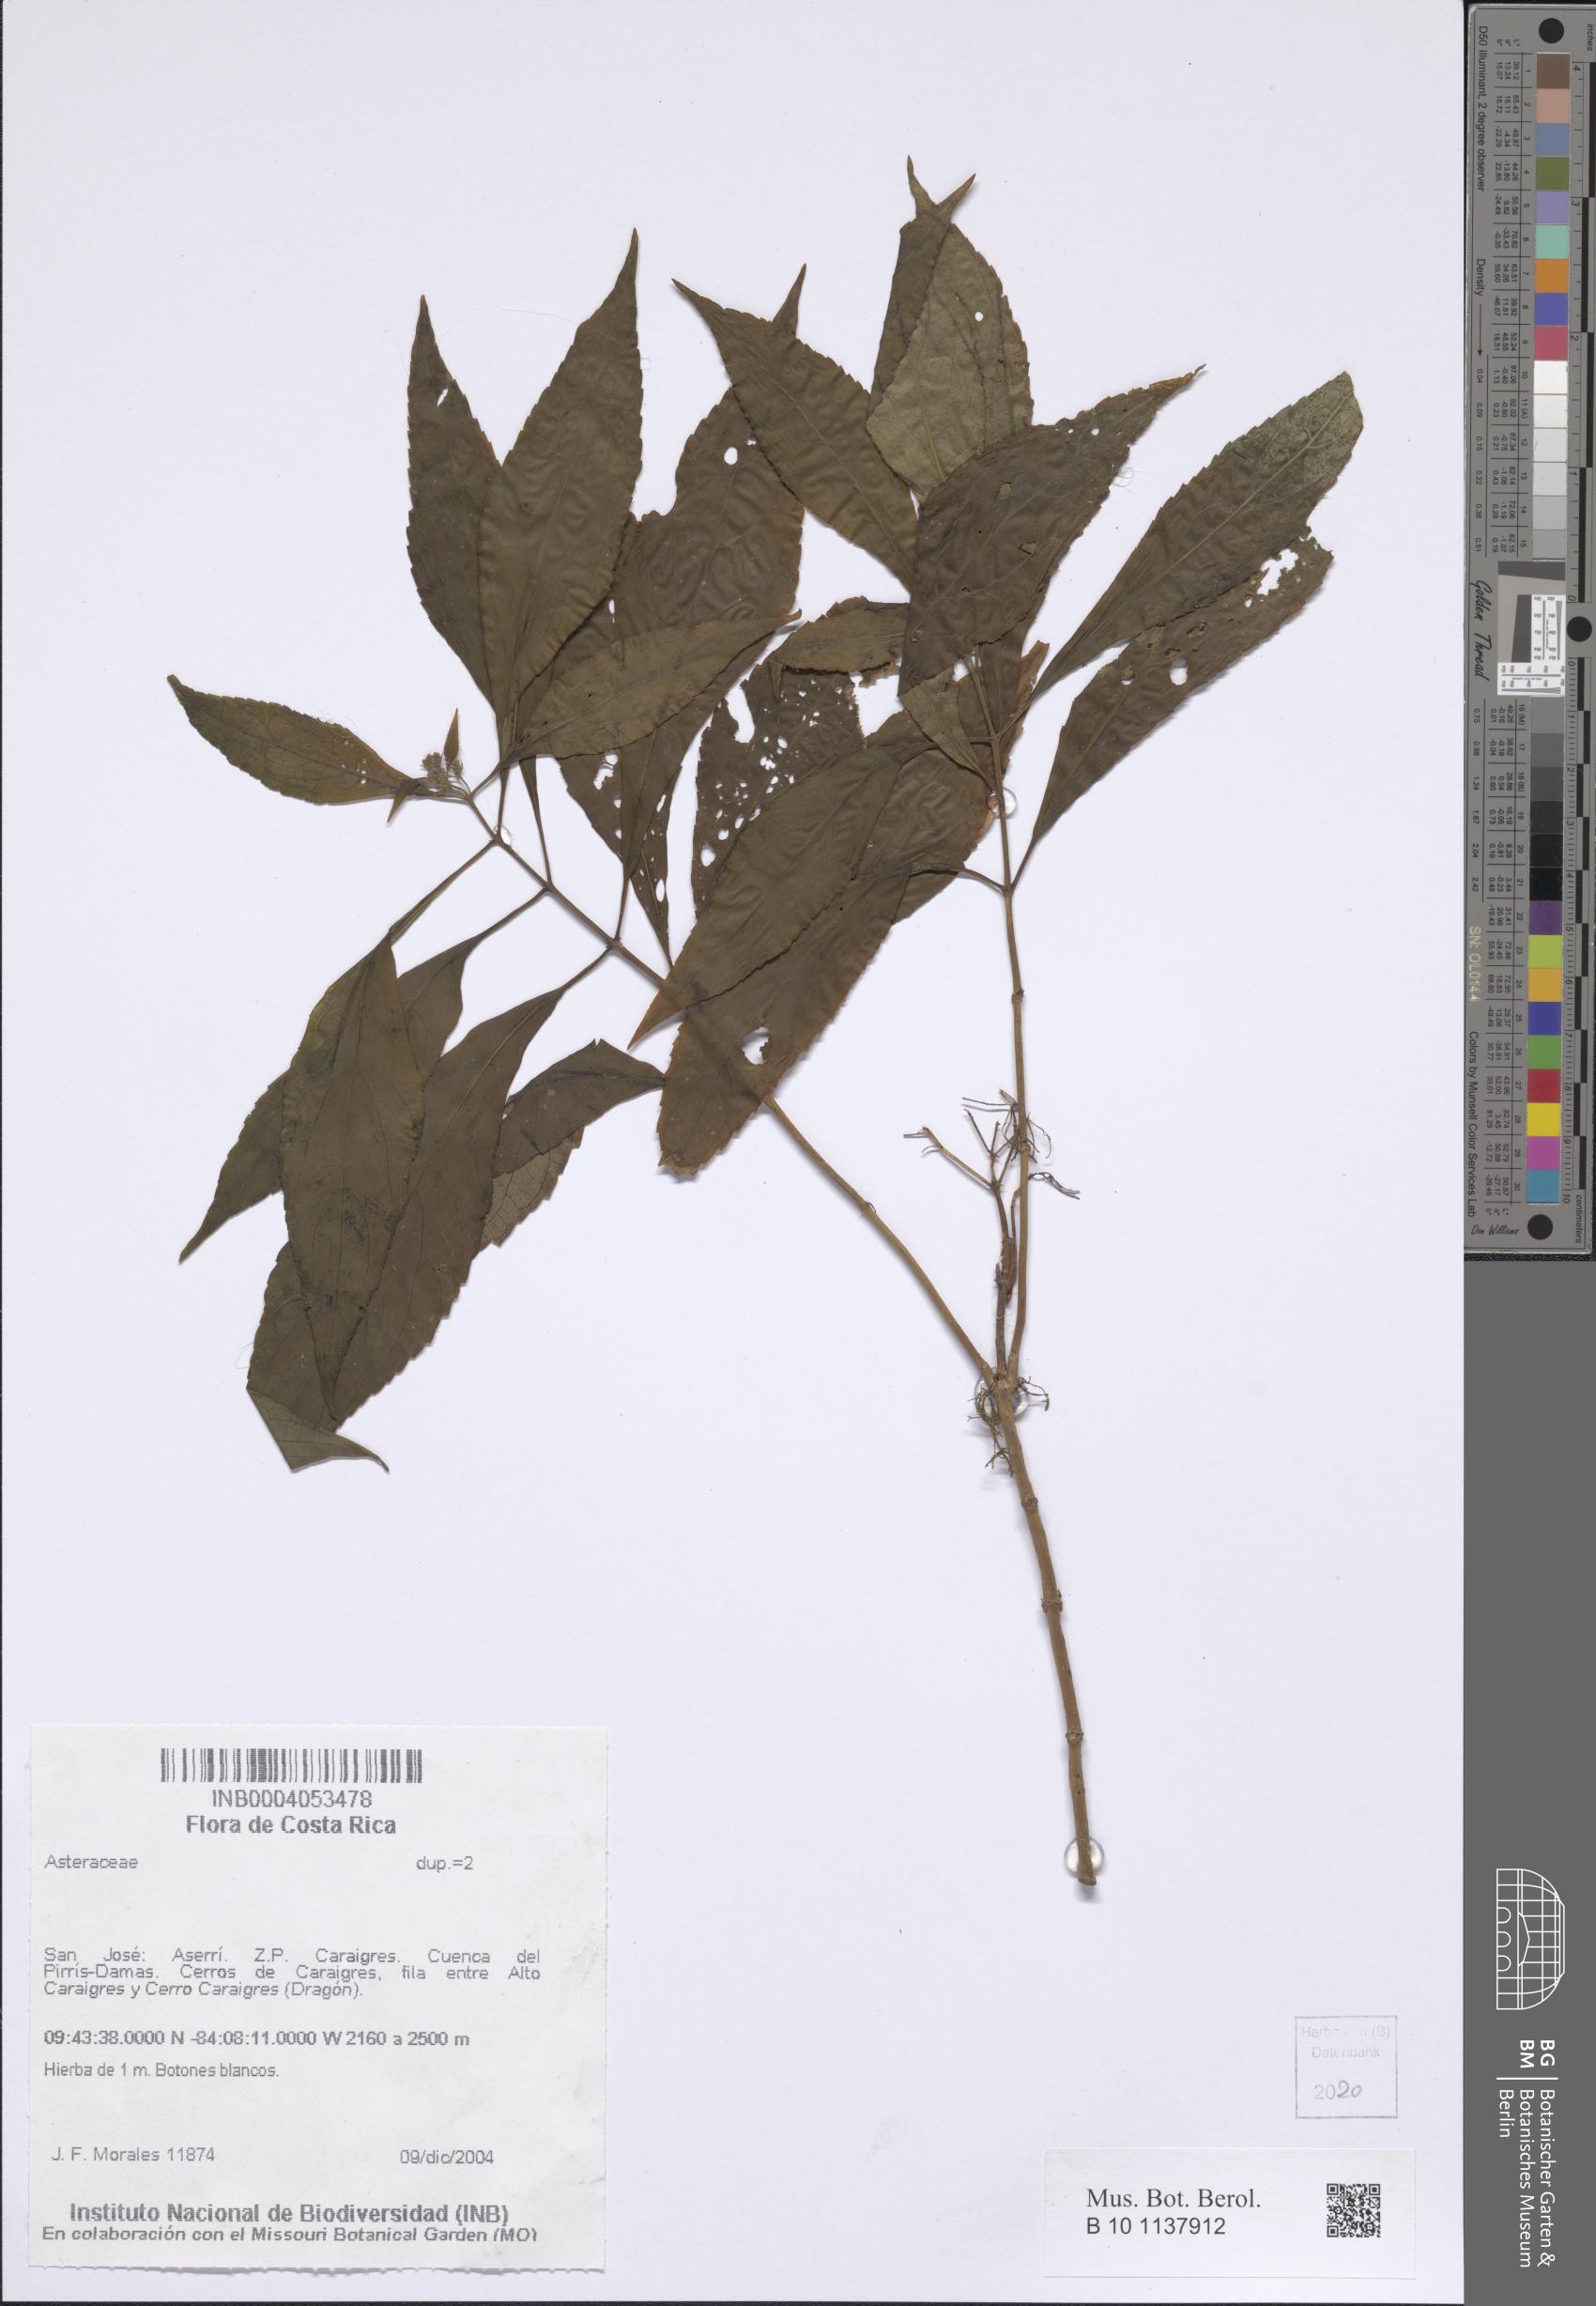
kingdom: Plantae
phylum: Tracheophyta
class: Magnoliopsida
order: Asterales
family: Asteraceae
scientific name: Asteraceae
